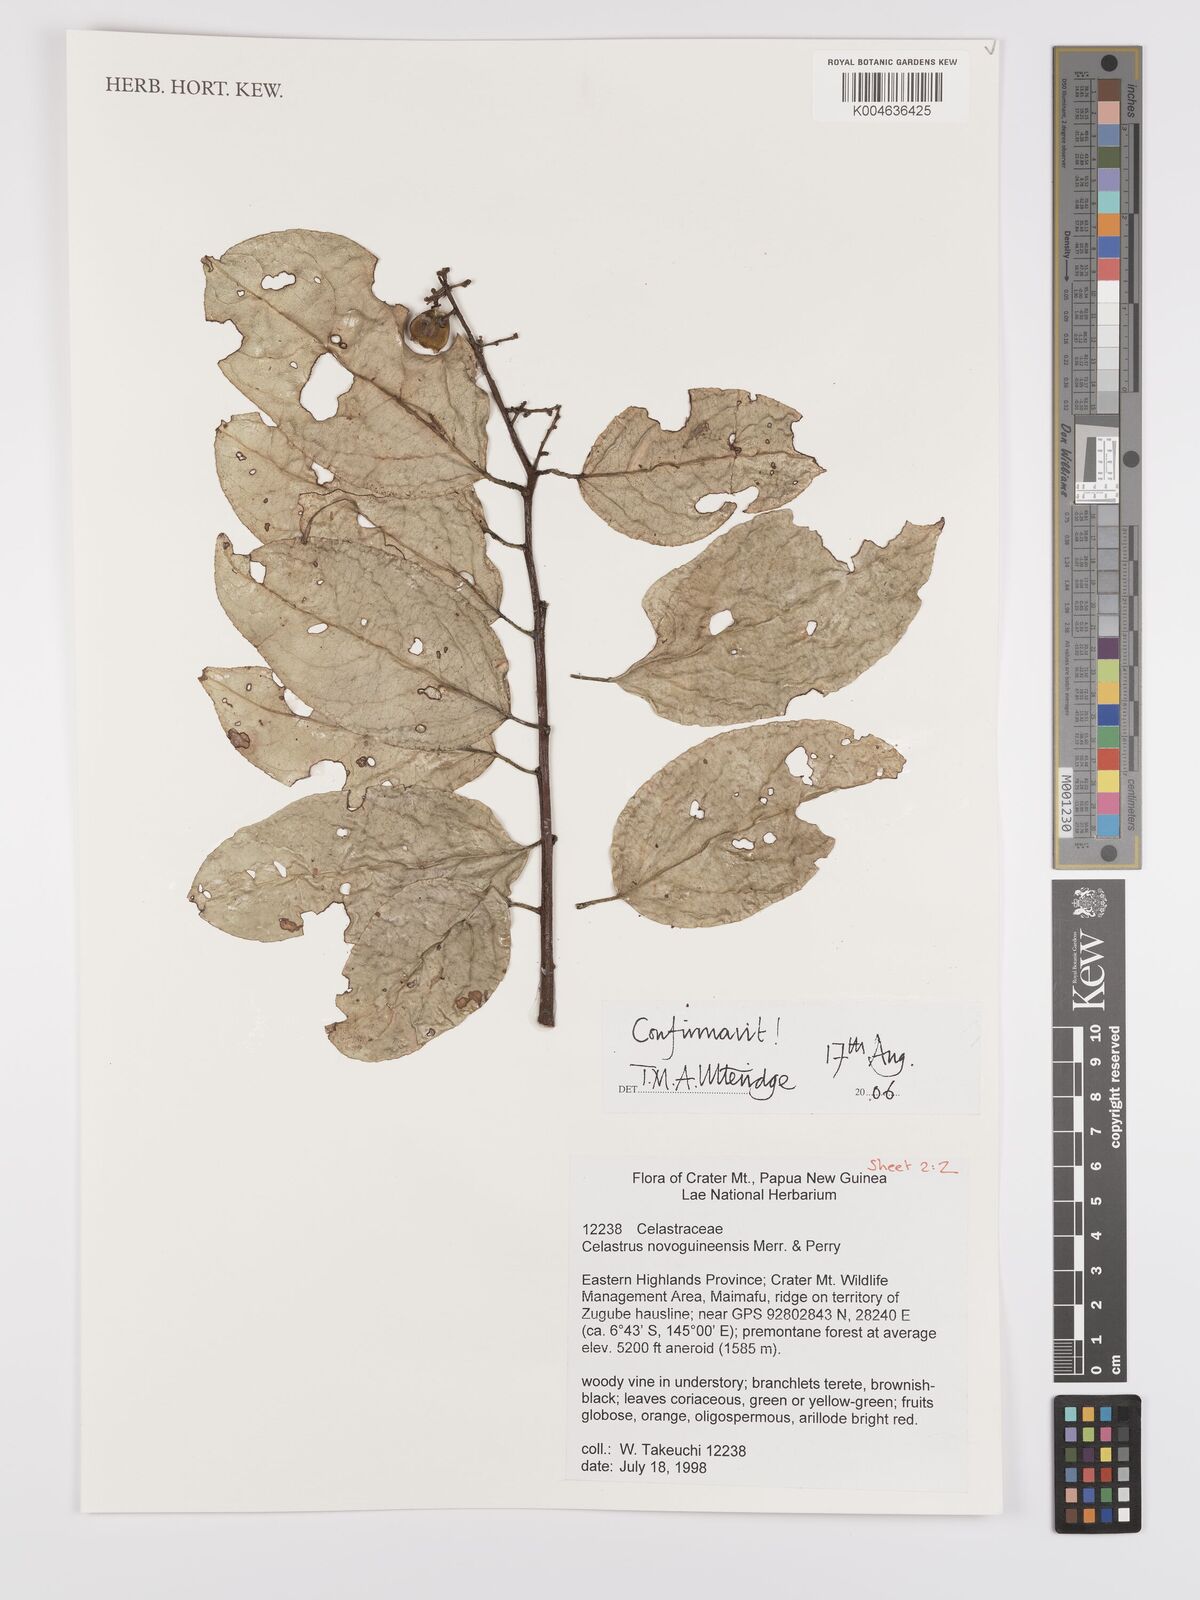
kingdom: Plantae
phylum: Tracheophyta
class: Magnoliopsida
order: Celastrales
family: Celastraceae
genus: Celastrus
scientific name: Celastrus novoguineensis
